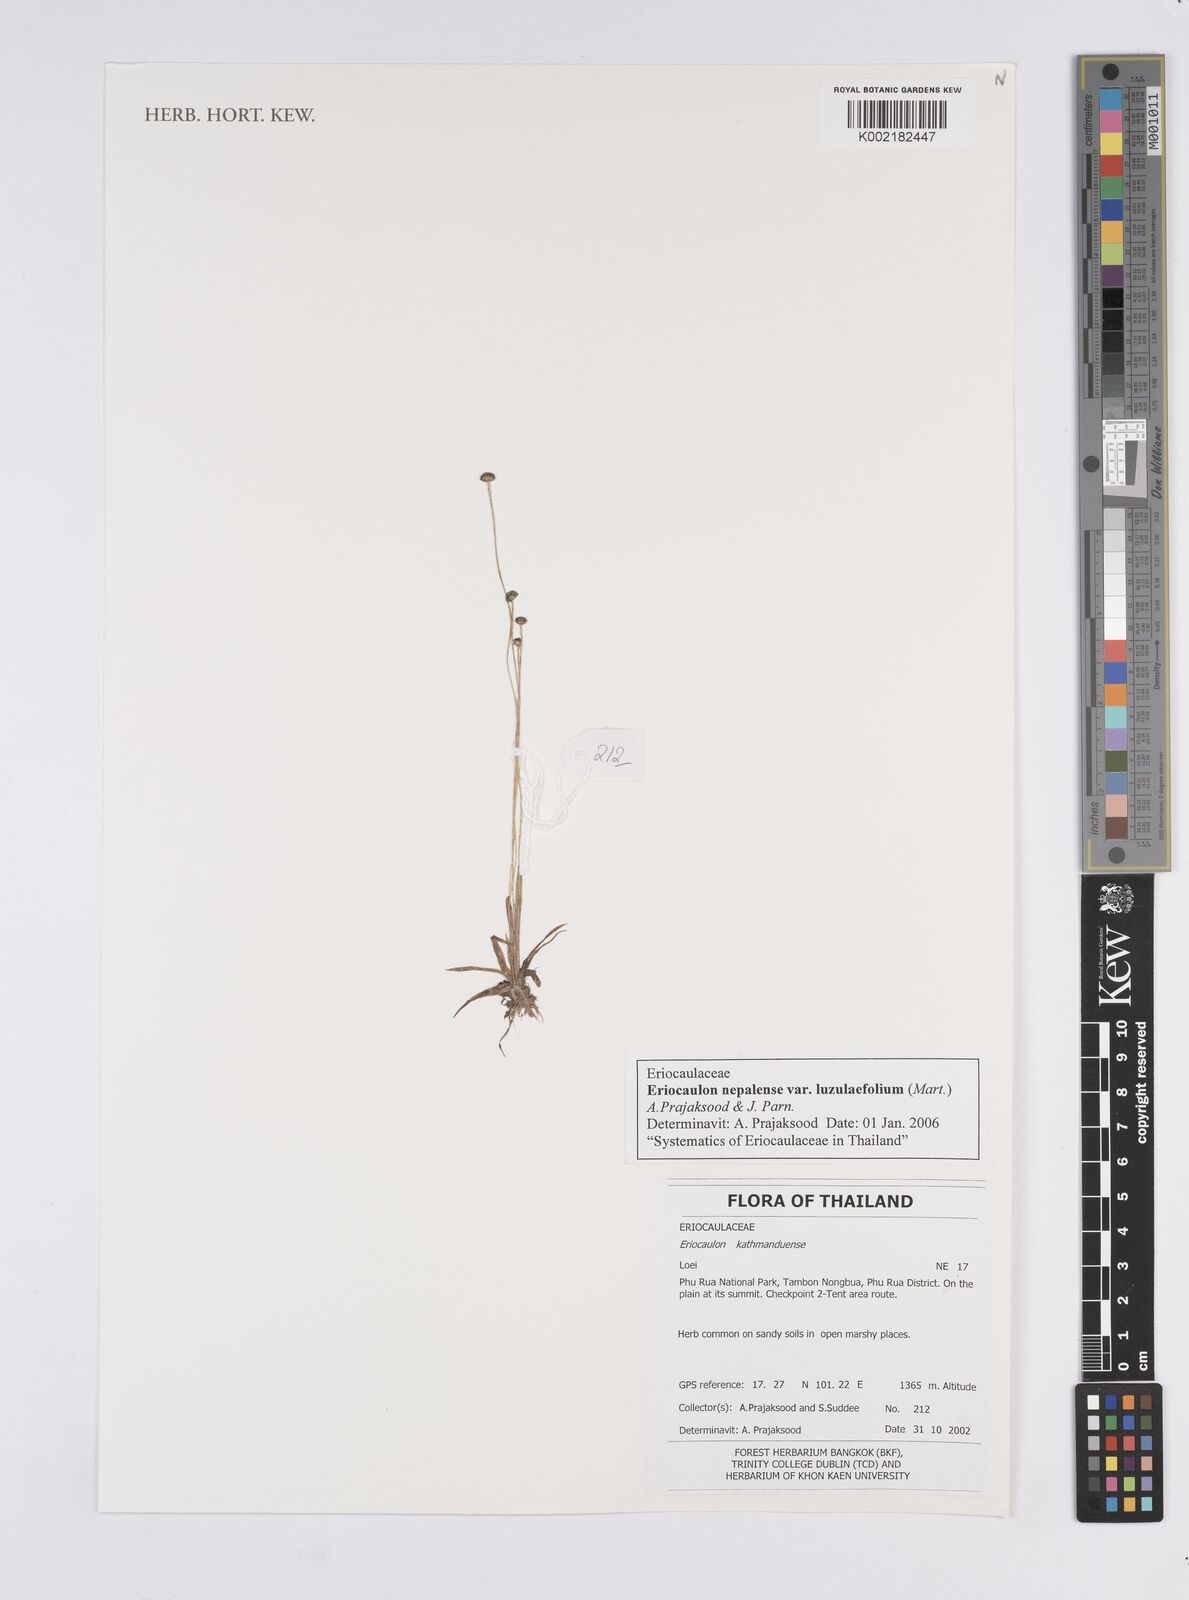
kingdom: Plantae
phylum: Tracheophyta
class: Liliopsida
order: Poales
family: Eriocaulaceae
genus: Eriocaulon
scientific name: Eriocaulon nepalense
